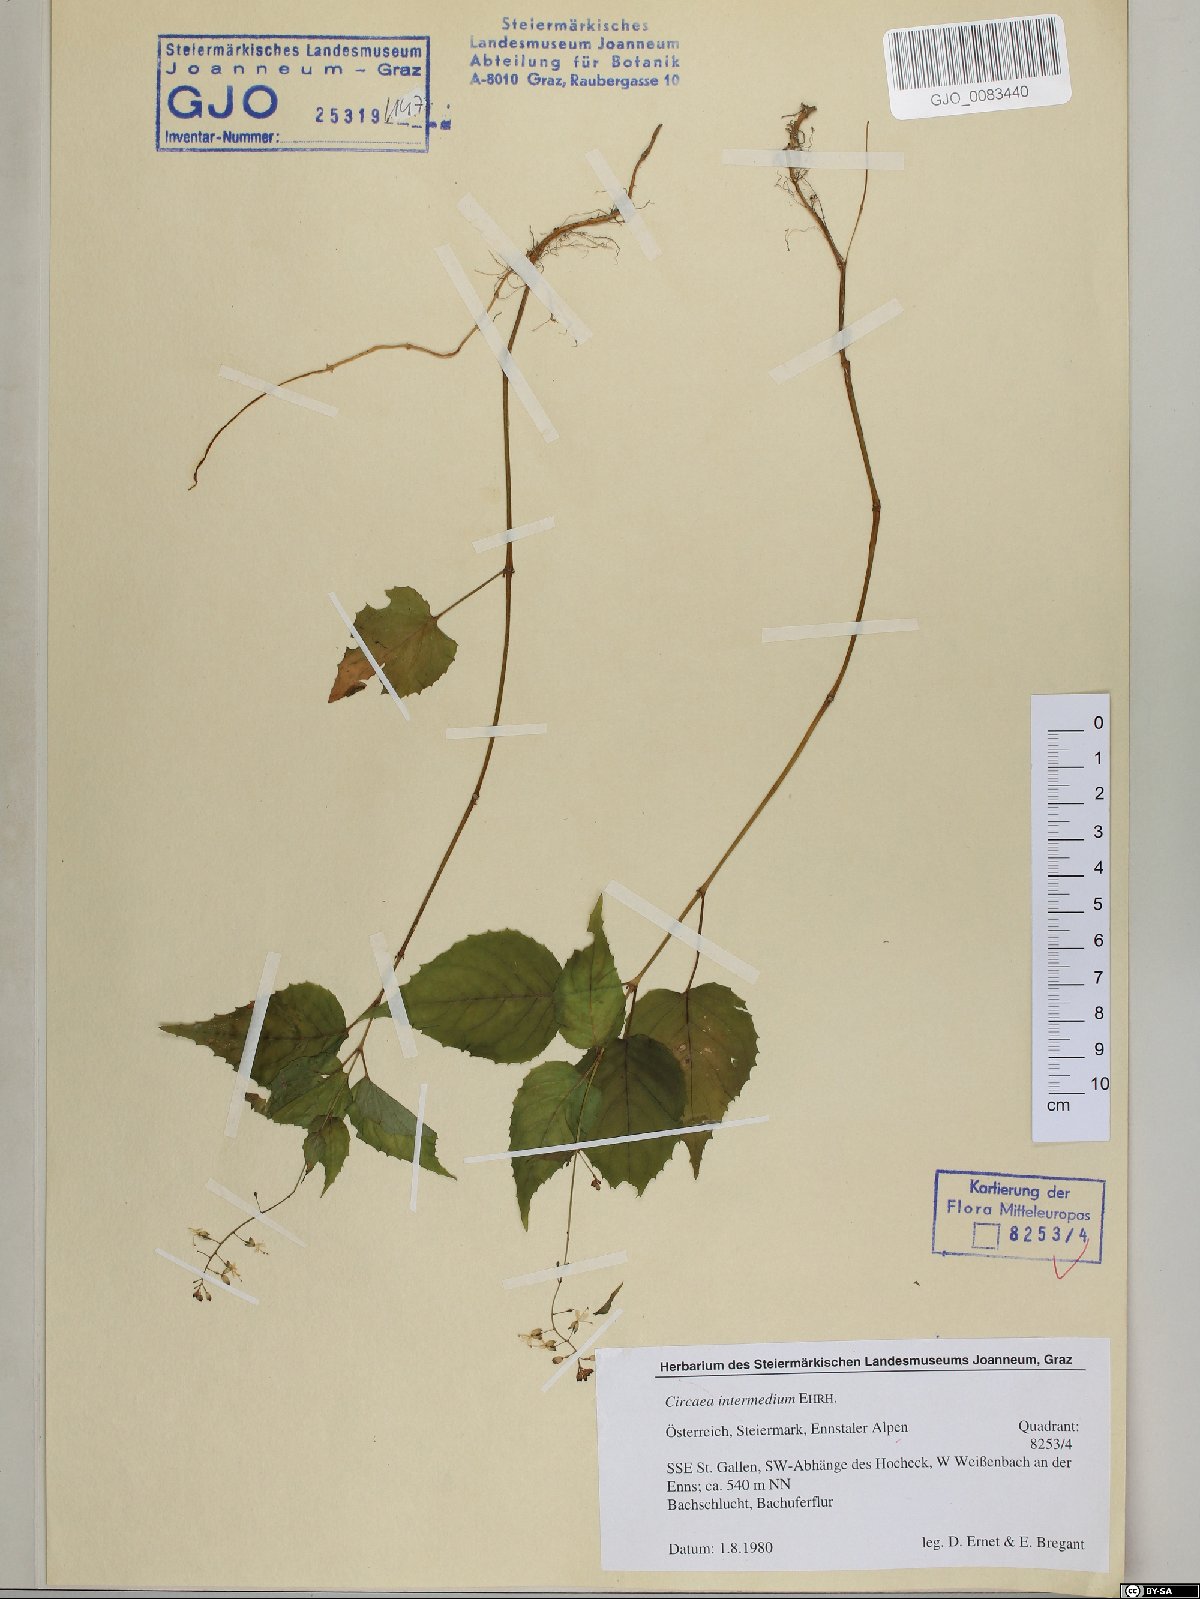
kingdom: Plantae
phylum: Tracheophyta
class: Magnoliopsida
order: Myrtales
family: Onagraceae
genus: Circaea
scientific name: Circaea intermedia
